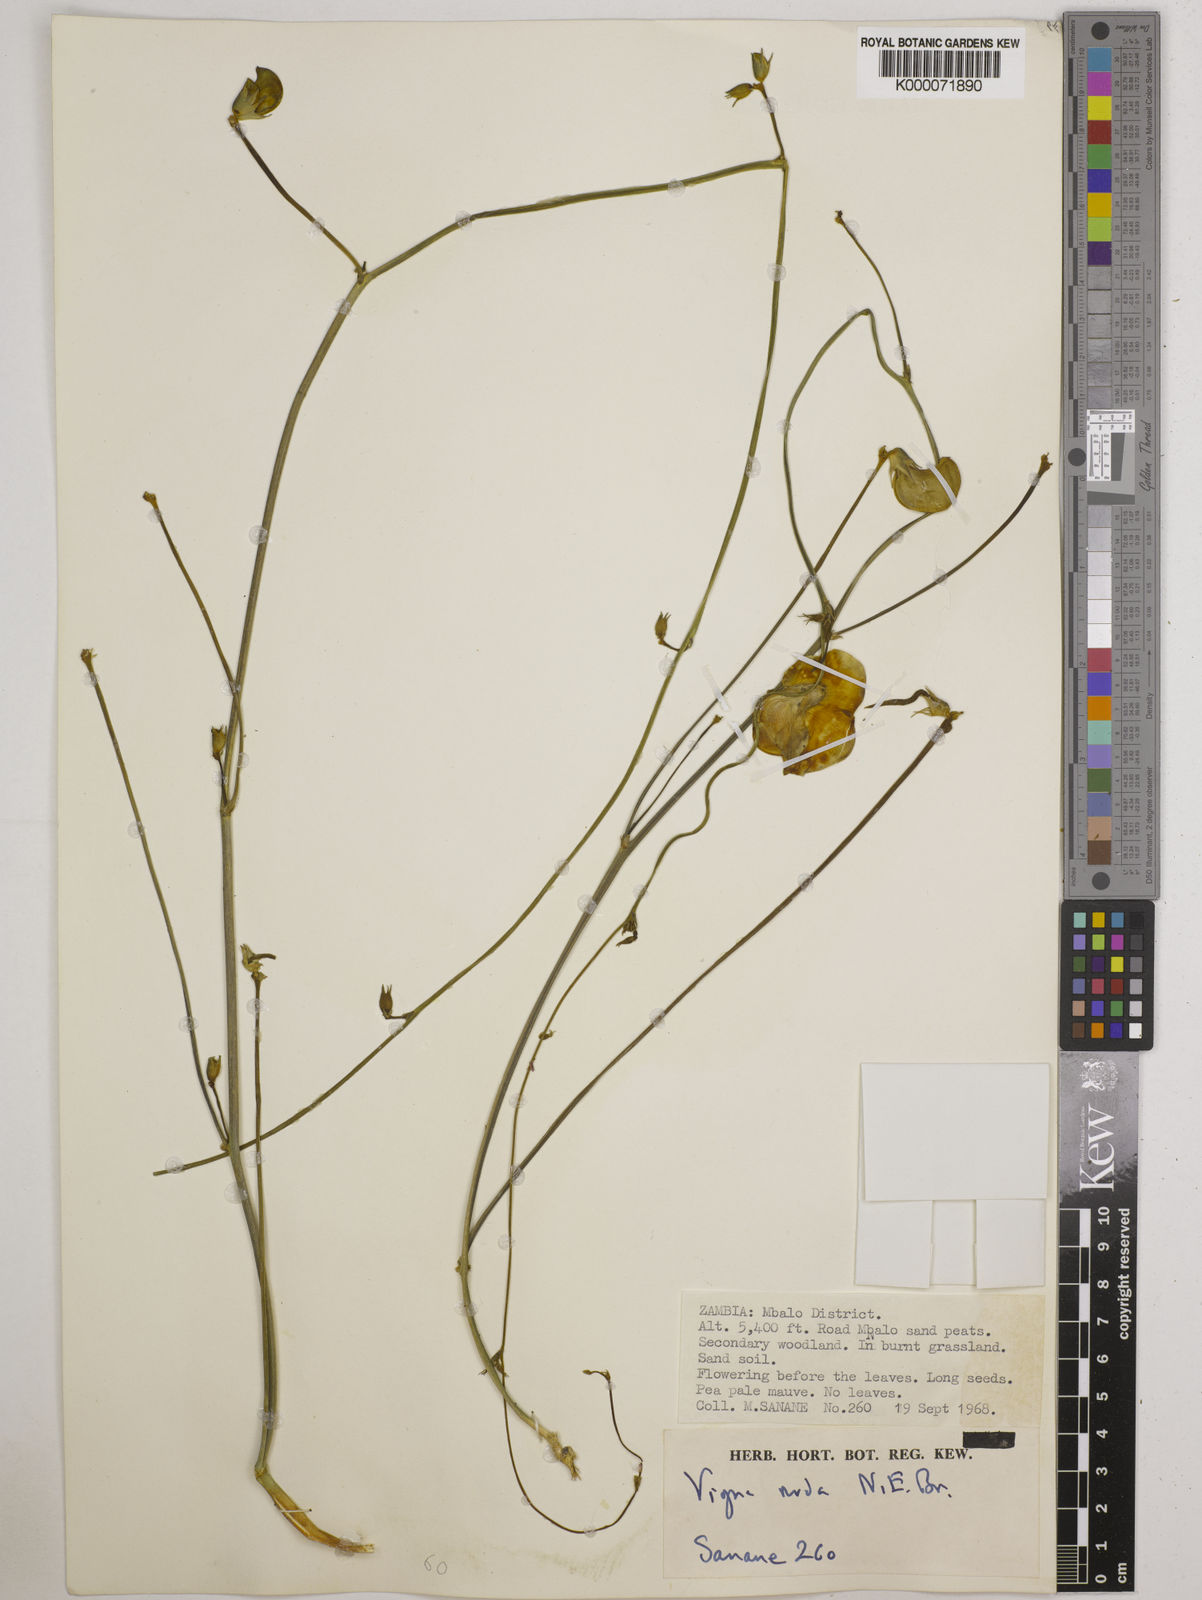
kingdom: Plantae
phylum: Tracheophyta
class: Magnoliopsida
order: Fabales
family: Fabaceae
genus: Vigna
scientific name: Vigna antunesii
